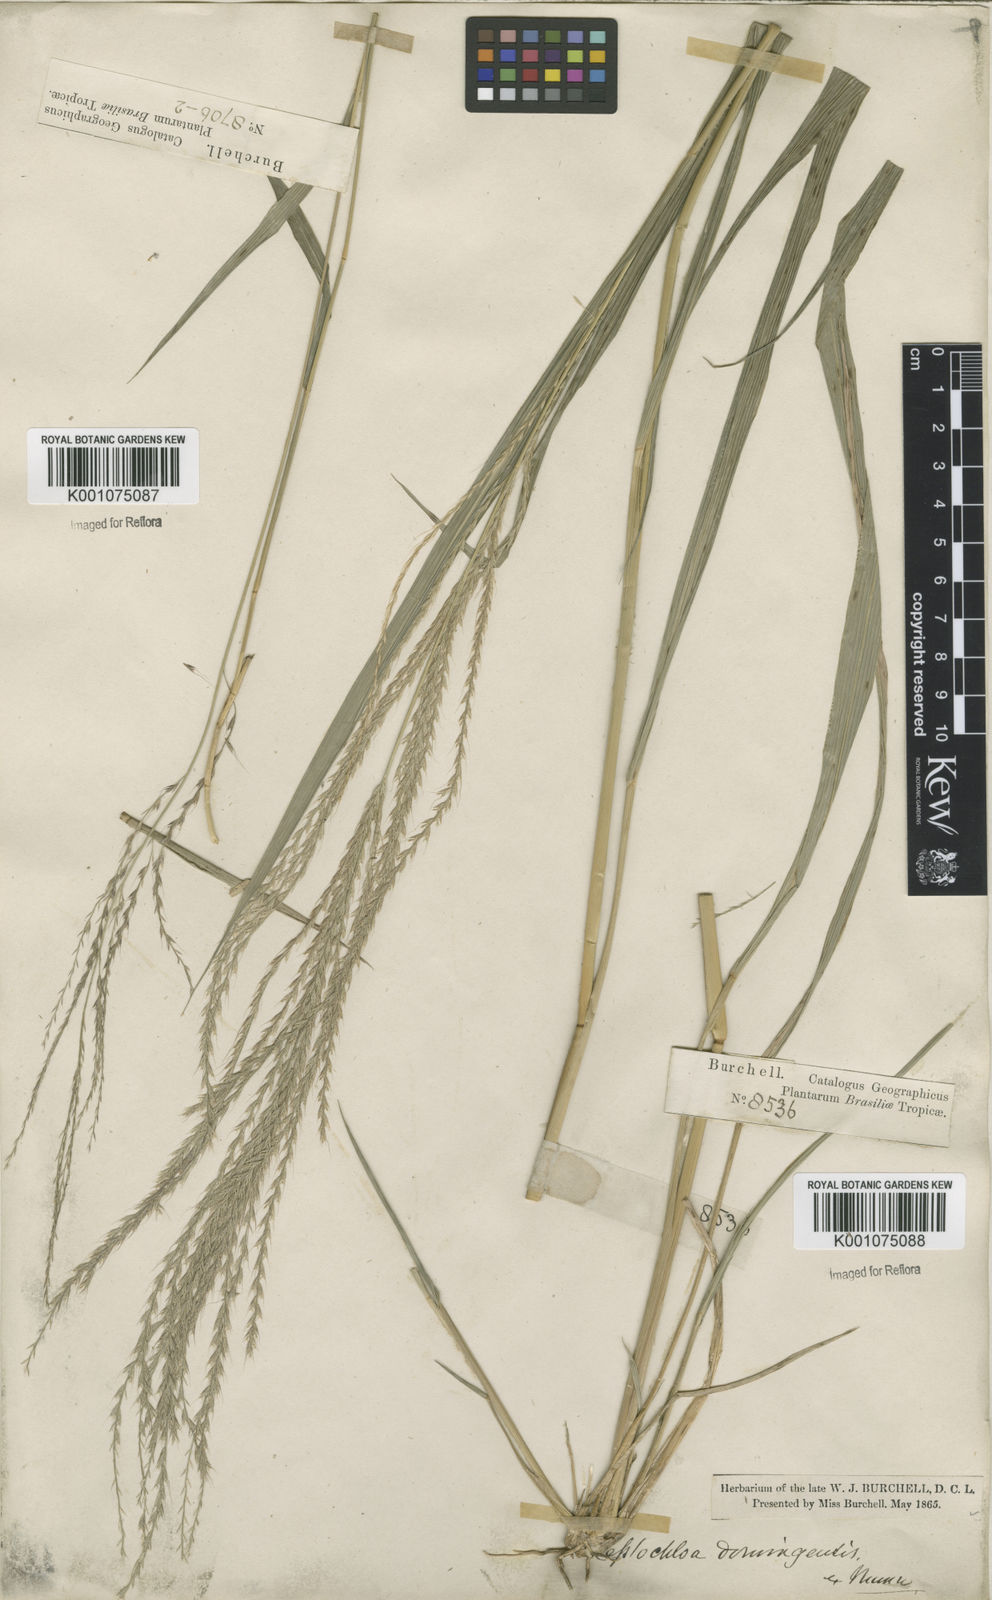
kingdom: Plantae
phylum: Tracheophyta
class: Liliopsida
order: Poales
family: Poaceae
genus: Leptochloa
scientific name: Leptochloa virgata
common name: Tropical sprangletop
